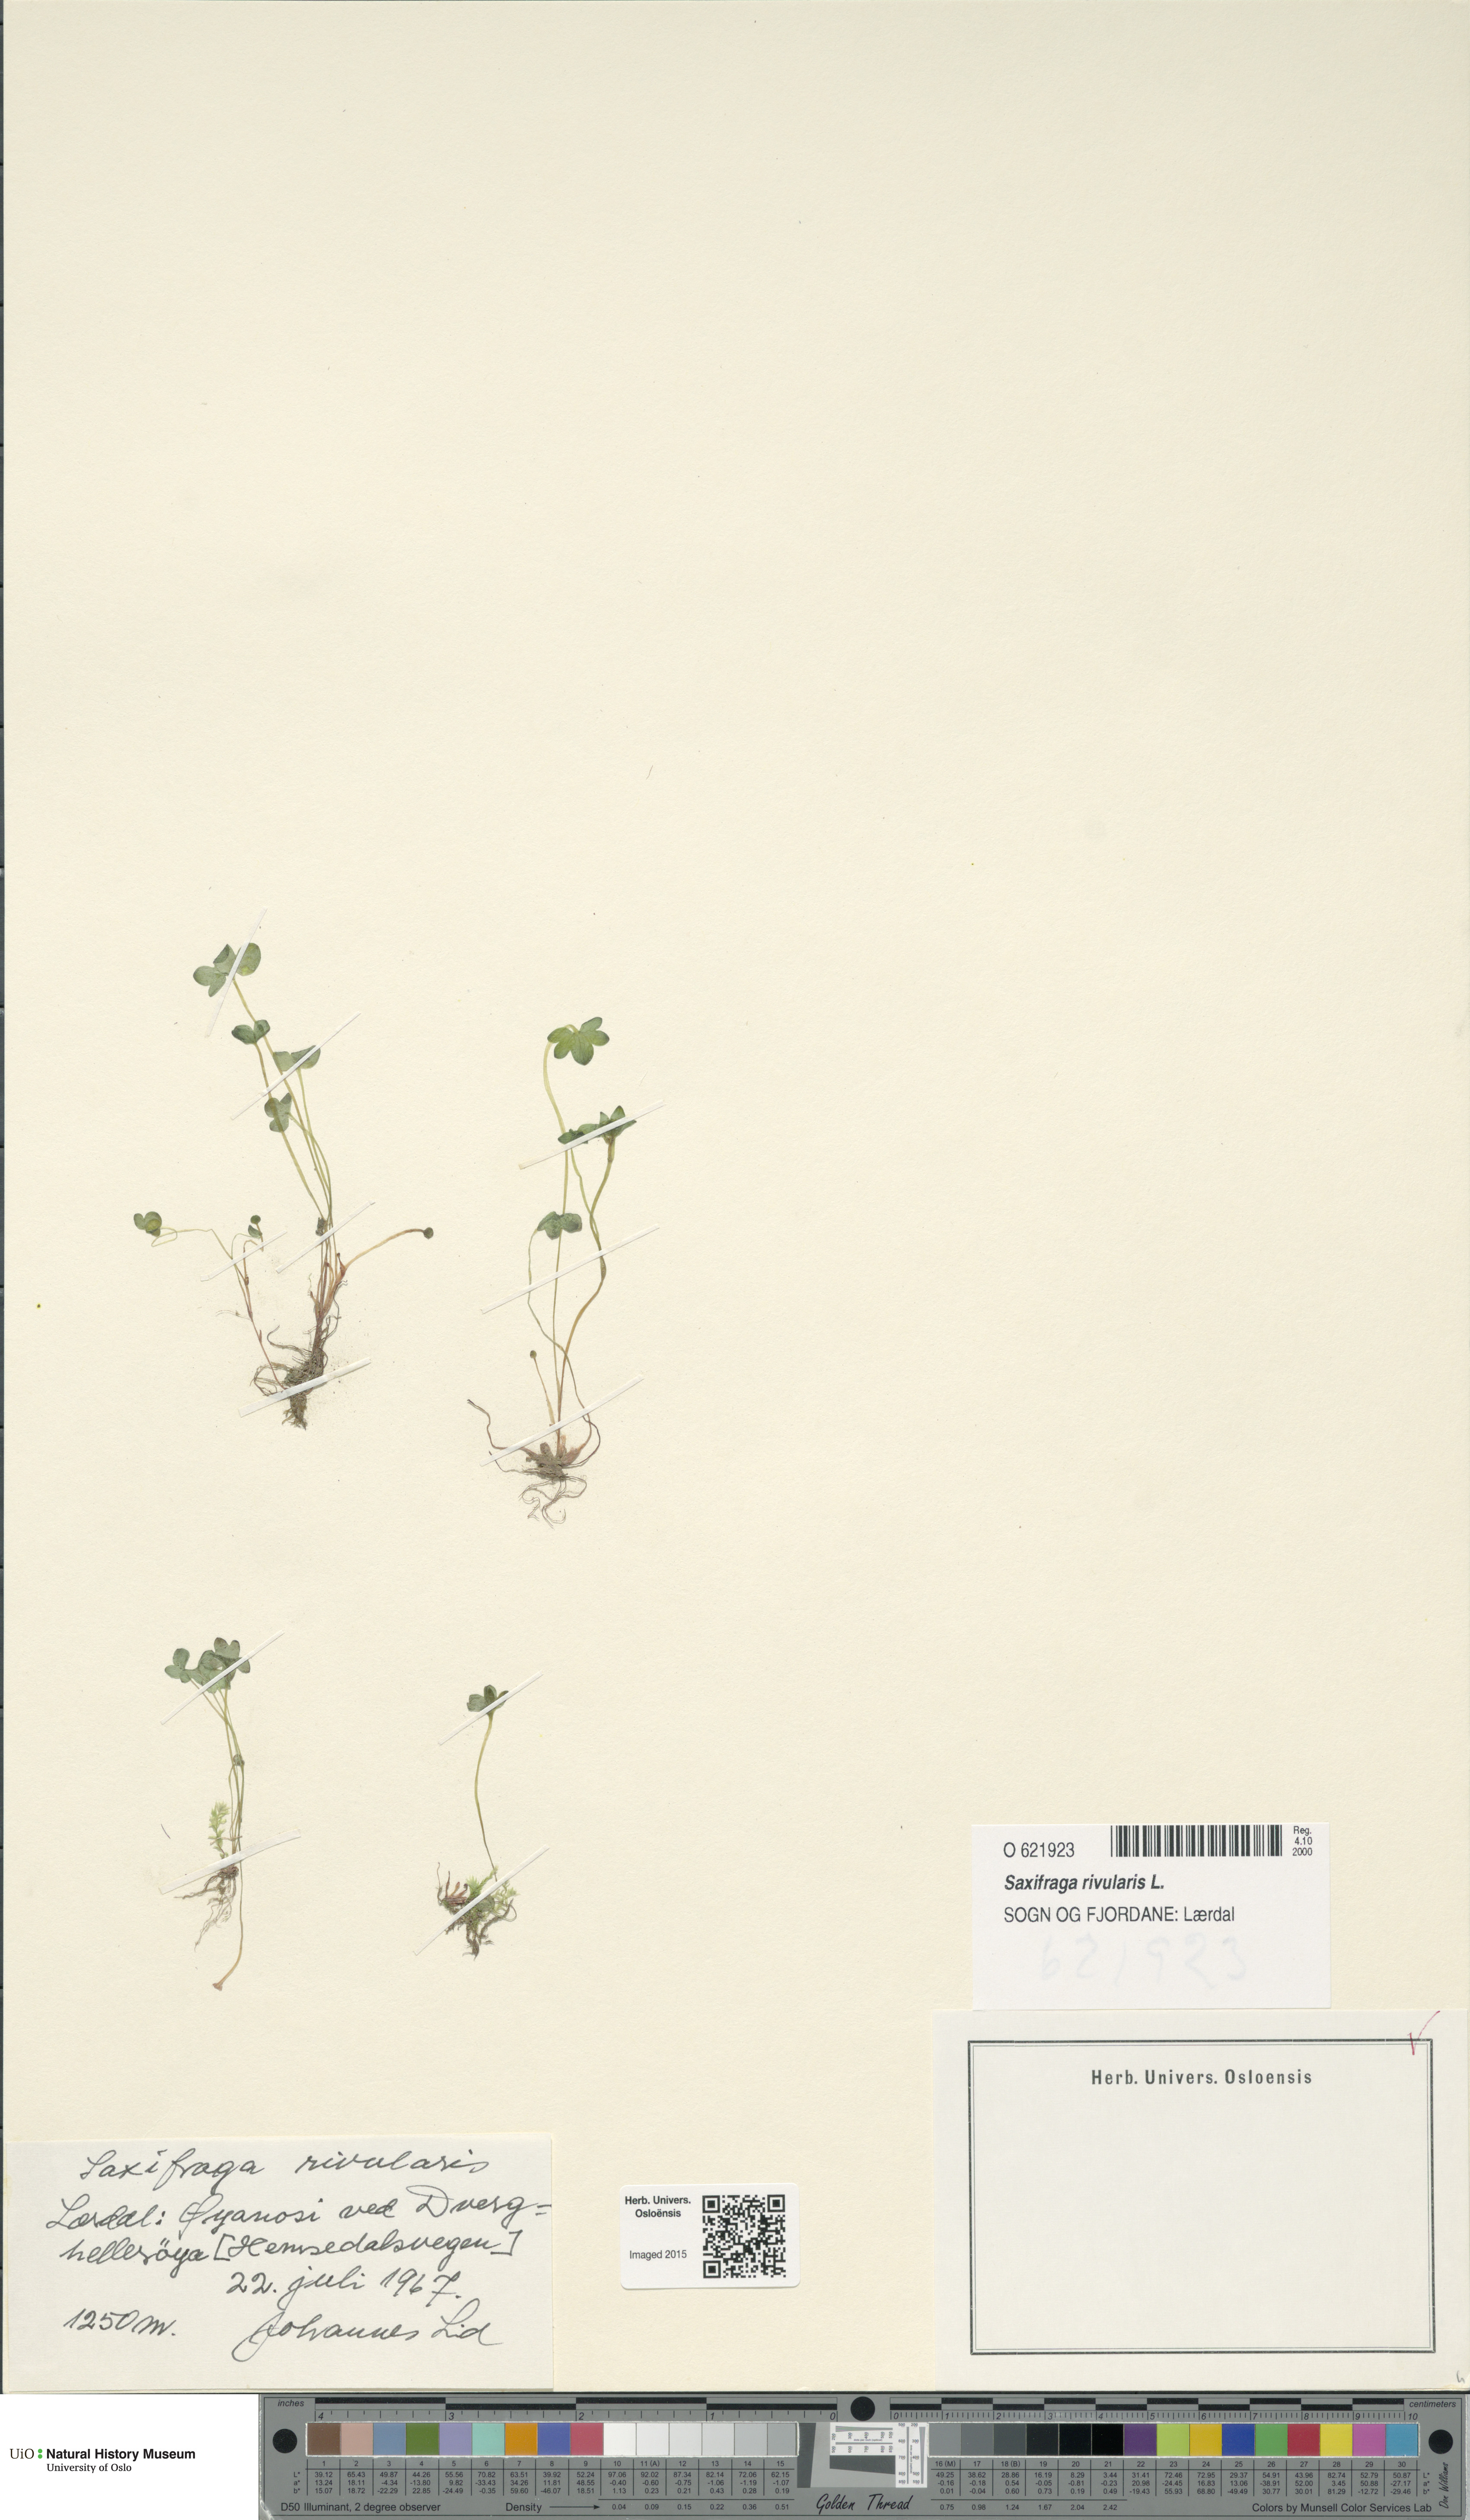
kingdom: Plantae
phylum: Tracheophyta
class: Magnoliopsida
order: Saxifragales
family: Saxifragaceae
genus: Saxifraga
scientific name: Saxifraga rivularis
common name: Highland saxifrage
